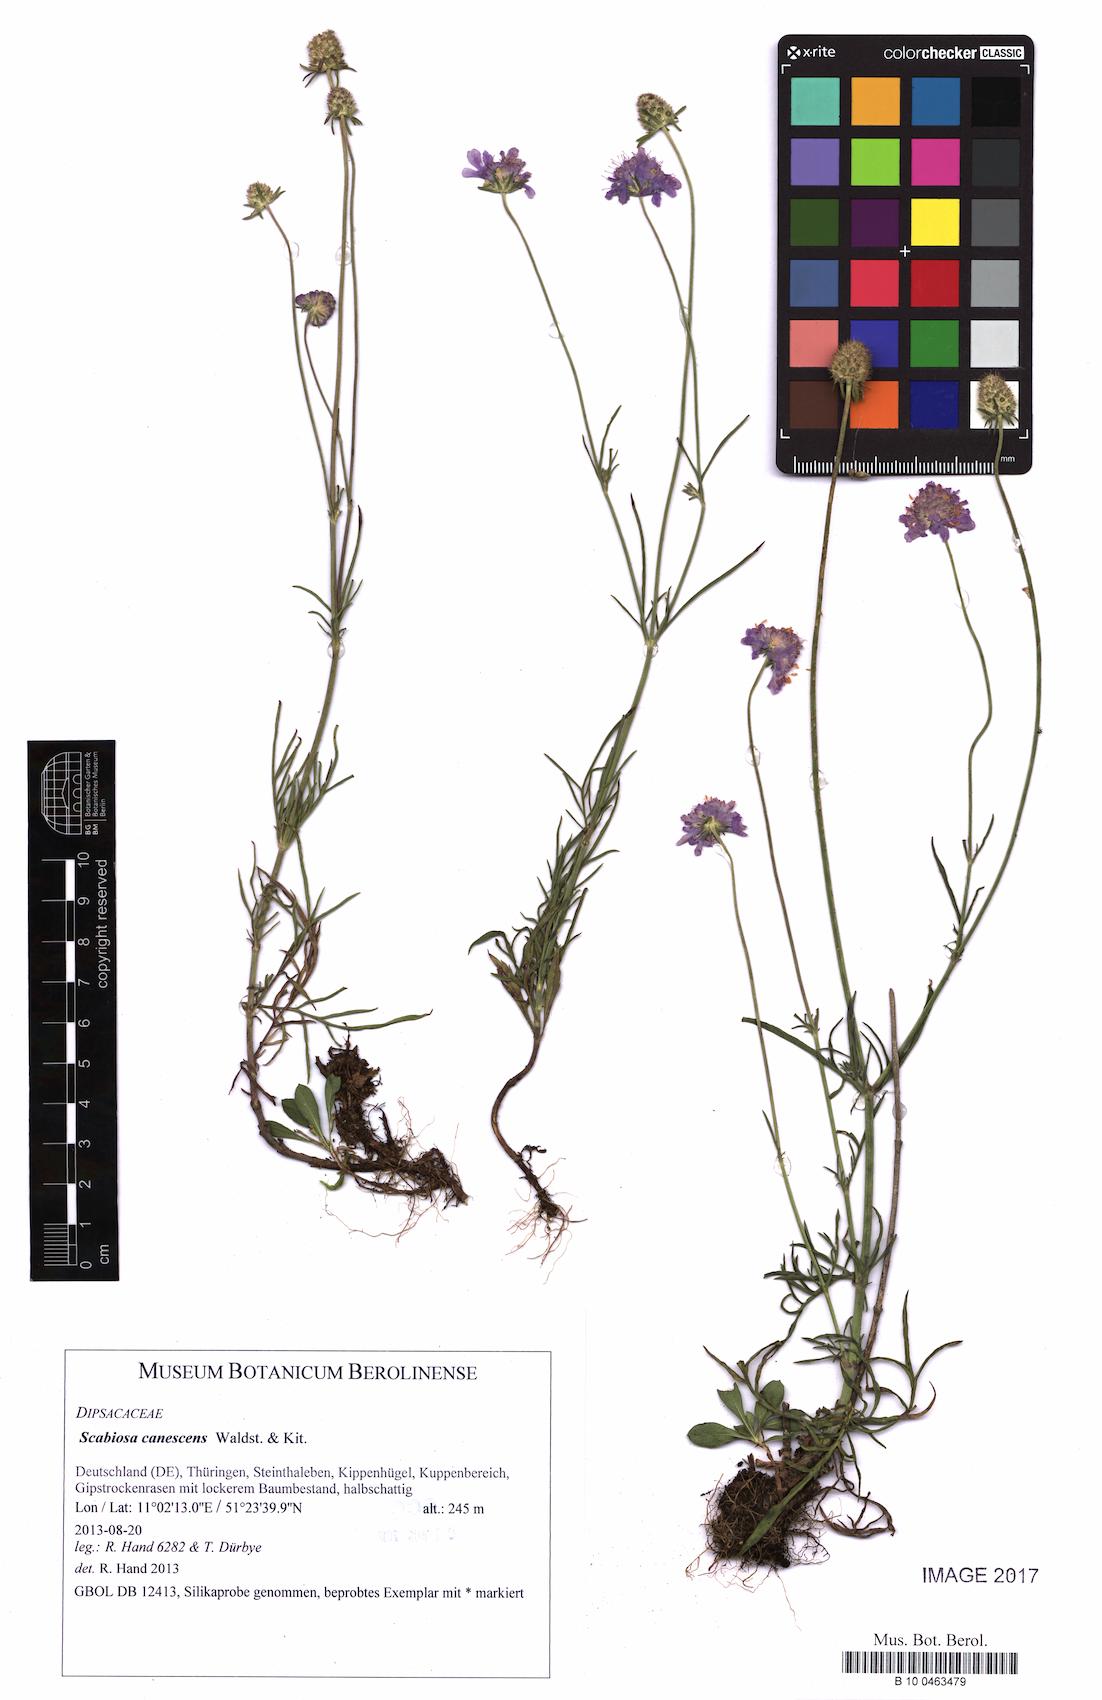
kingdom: Plantae
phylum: Tracheophyta
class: Magnoliopsida
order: Dipsacales
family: Caprifoliaceae
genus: Scabiosa
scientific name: Scabiosa canescens
